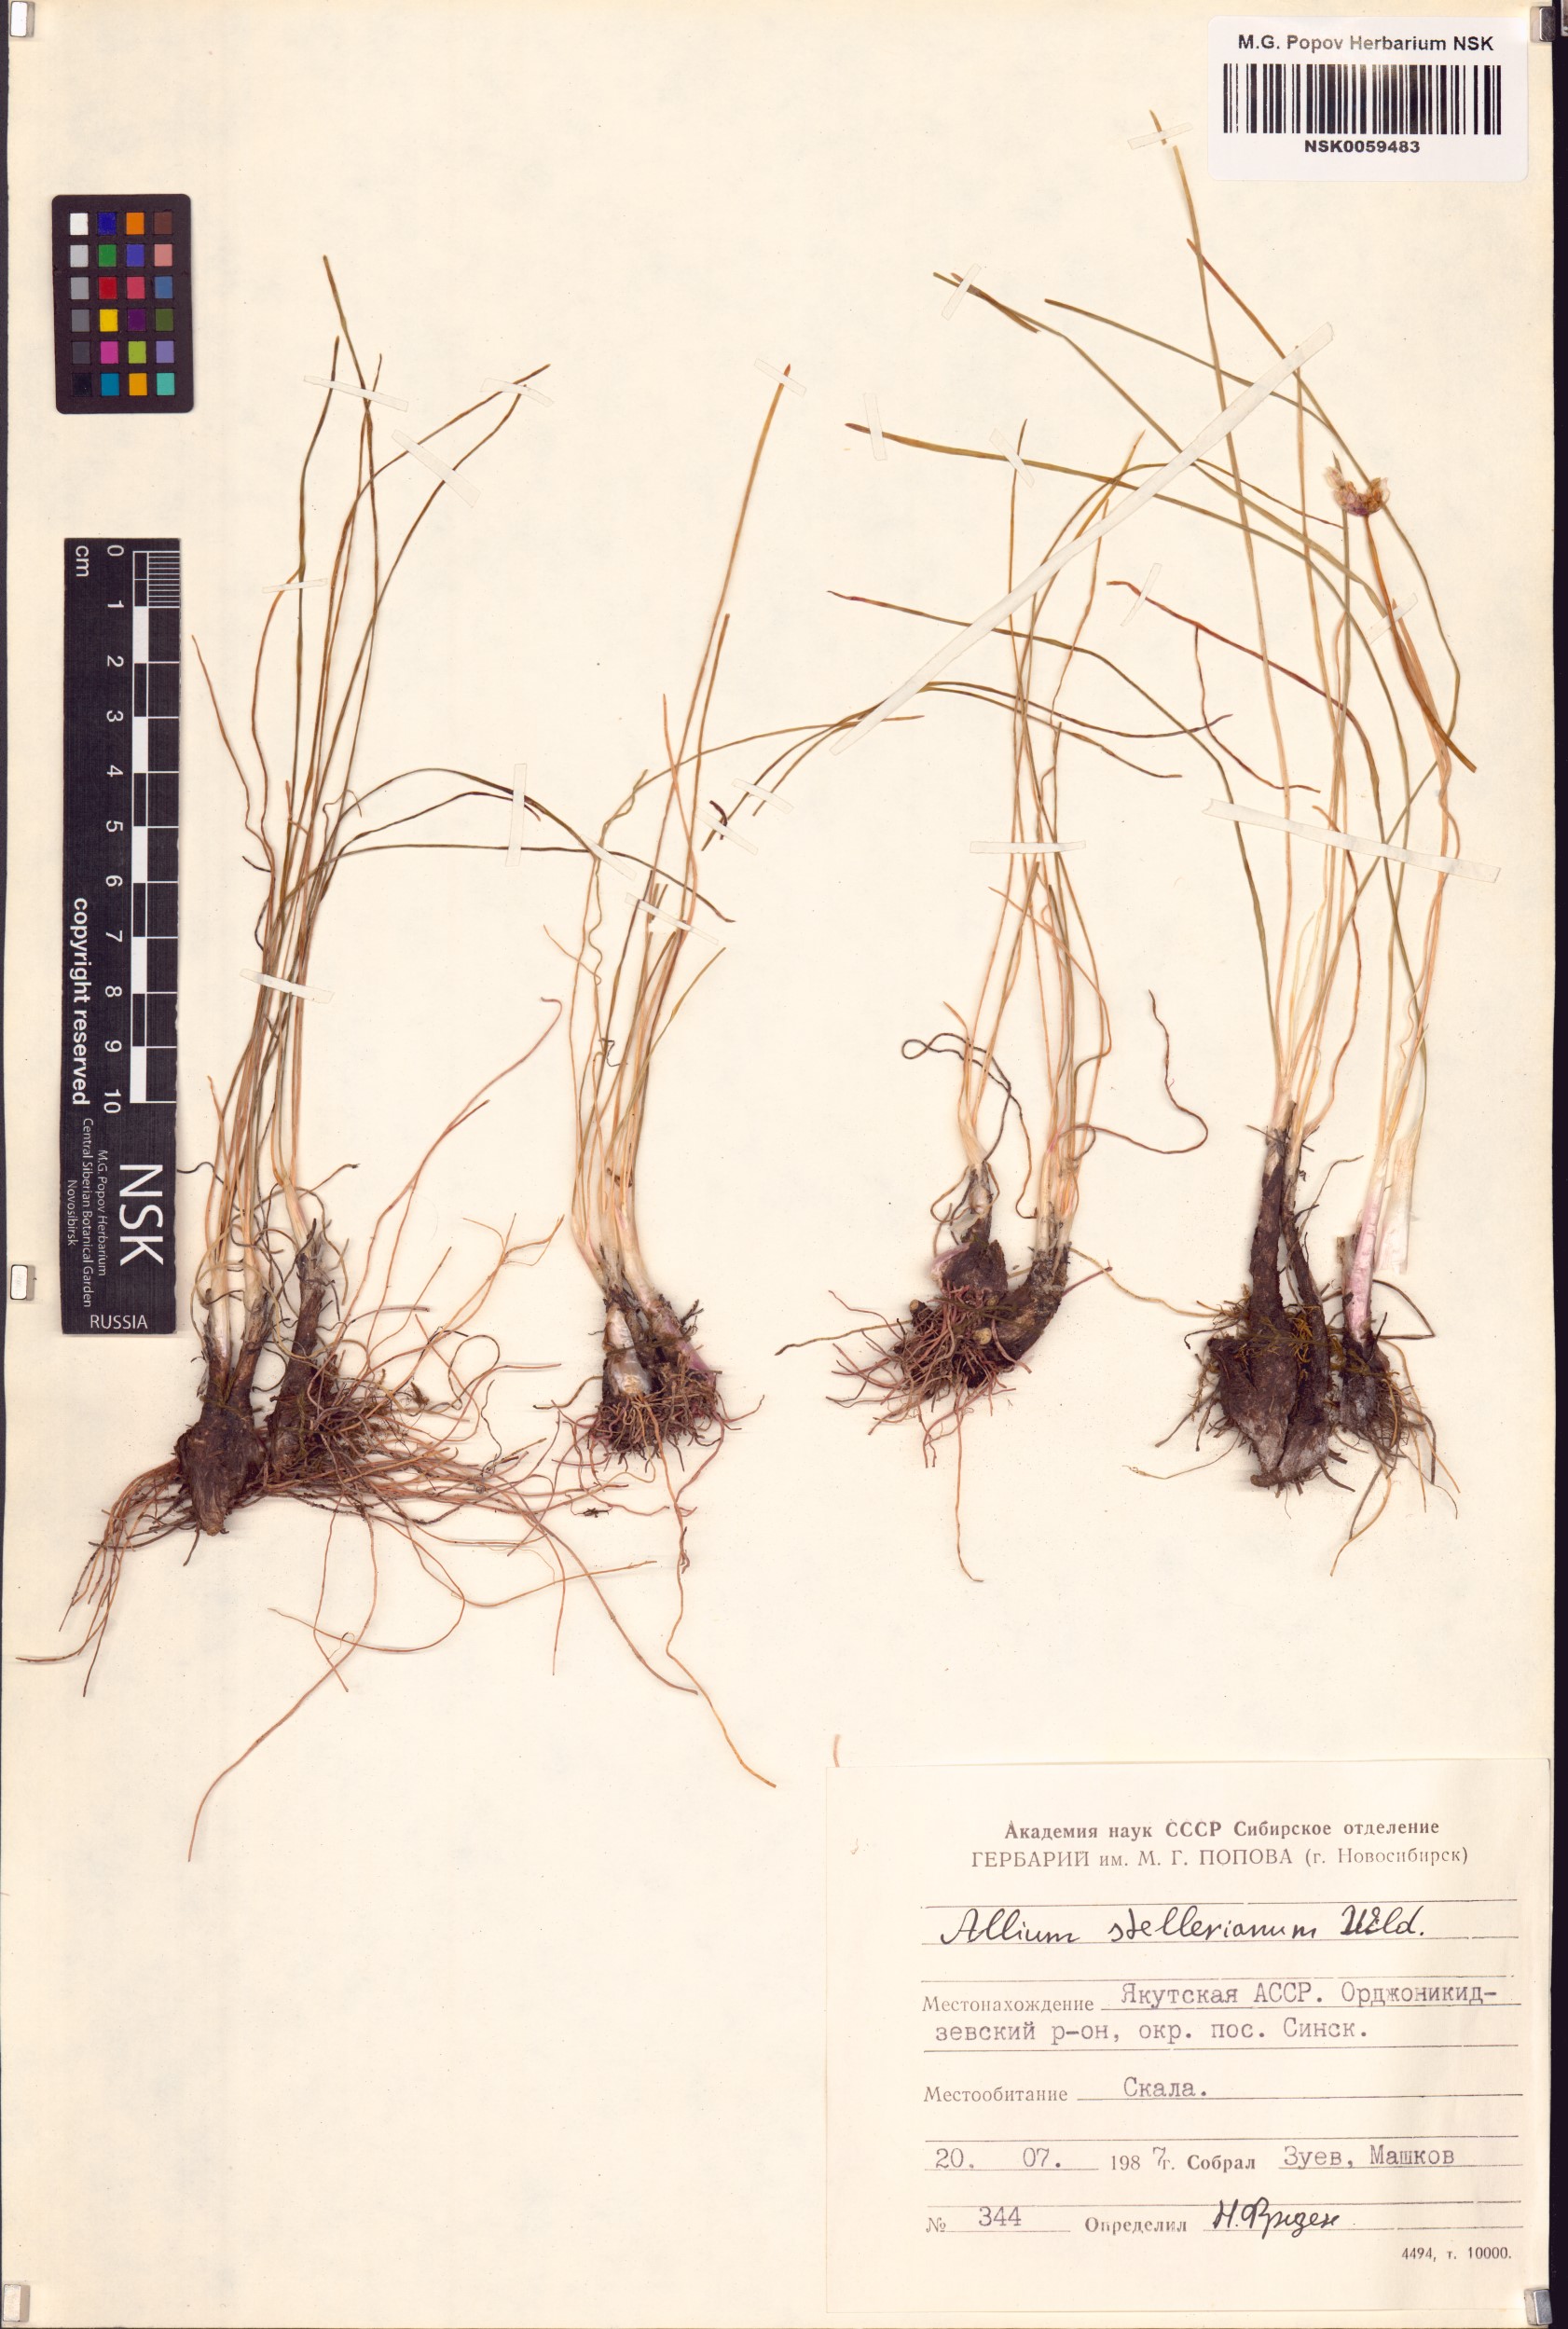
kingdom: Plantae
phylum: Tracheophyta
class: Liliopsida
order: Asparagales
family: Amaryllidaceae
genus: Allium
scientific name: Allium stellerianum
